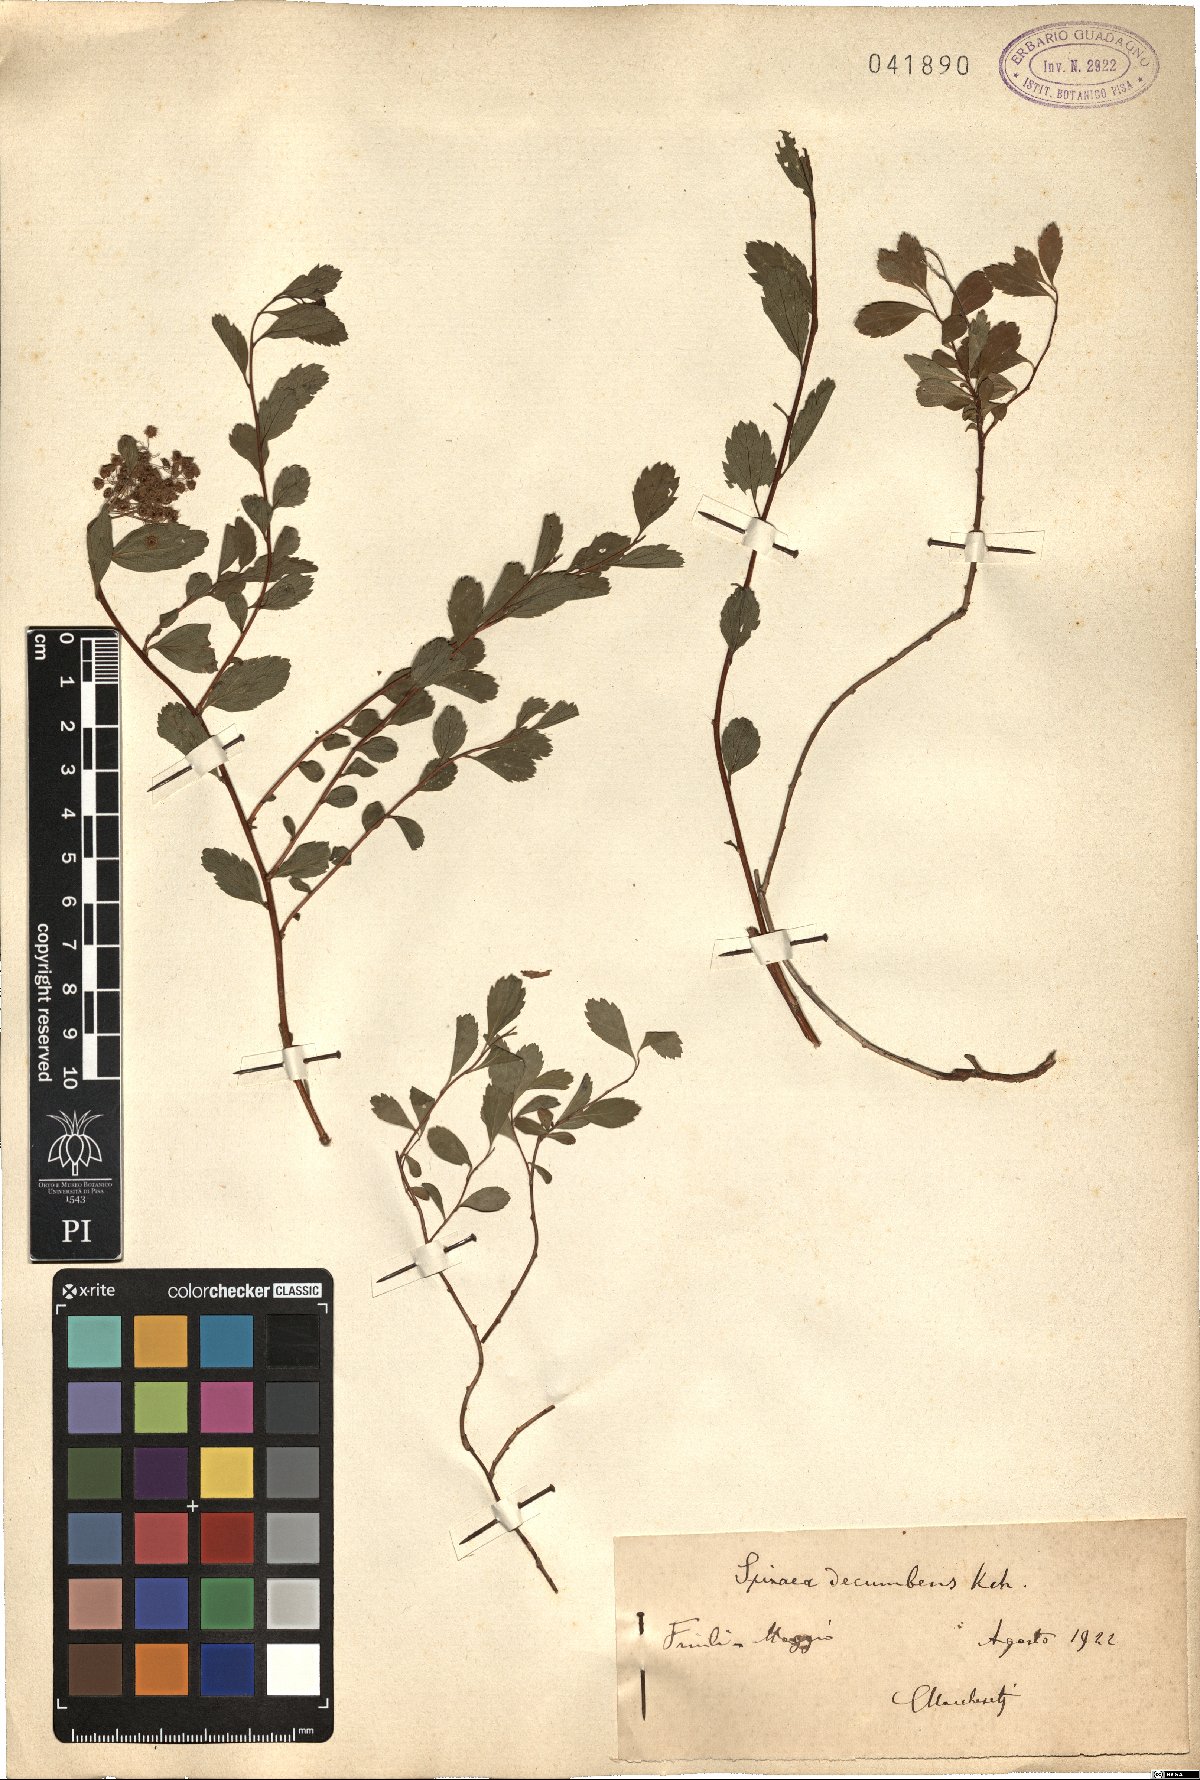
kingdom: Plantae
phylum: Tracheophyta
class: Magnoliopsida
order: Rosales
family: Rosaceae
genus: Spiraea
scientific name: Spiraea decumbens
